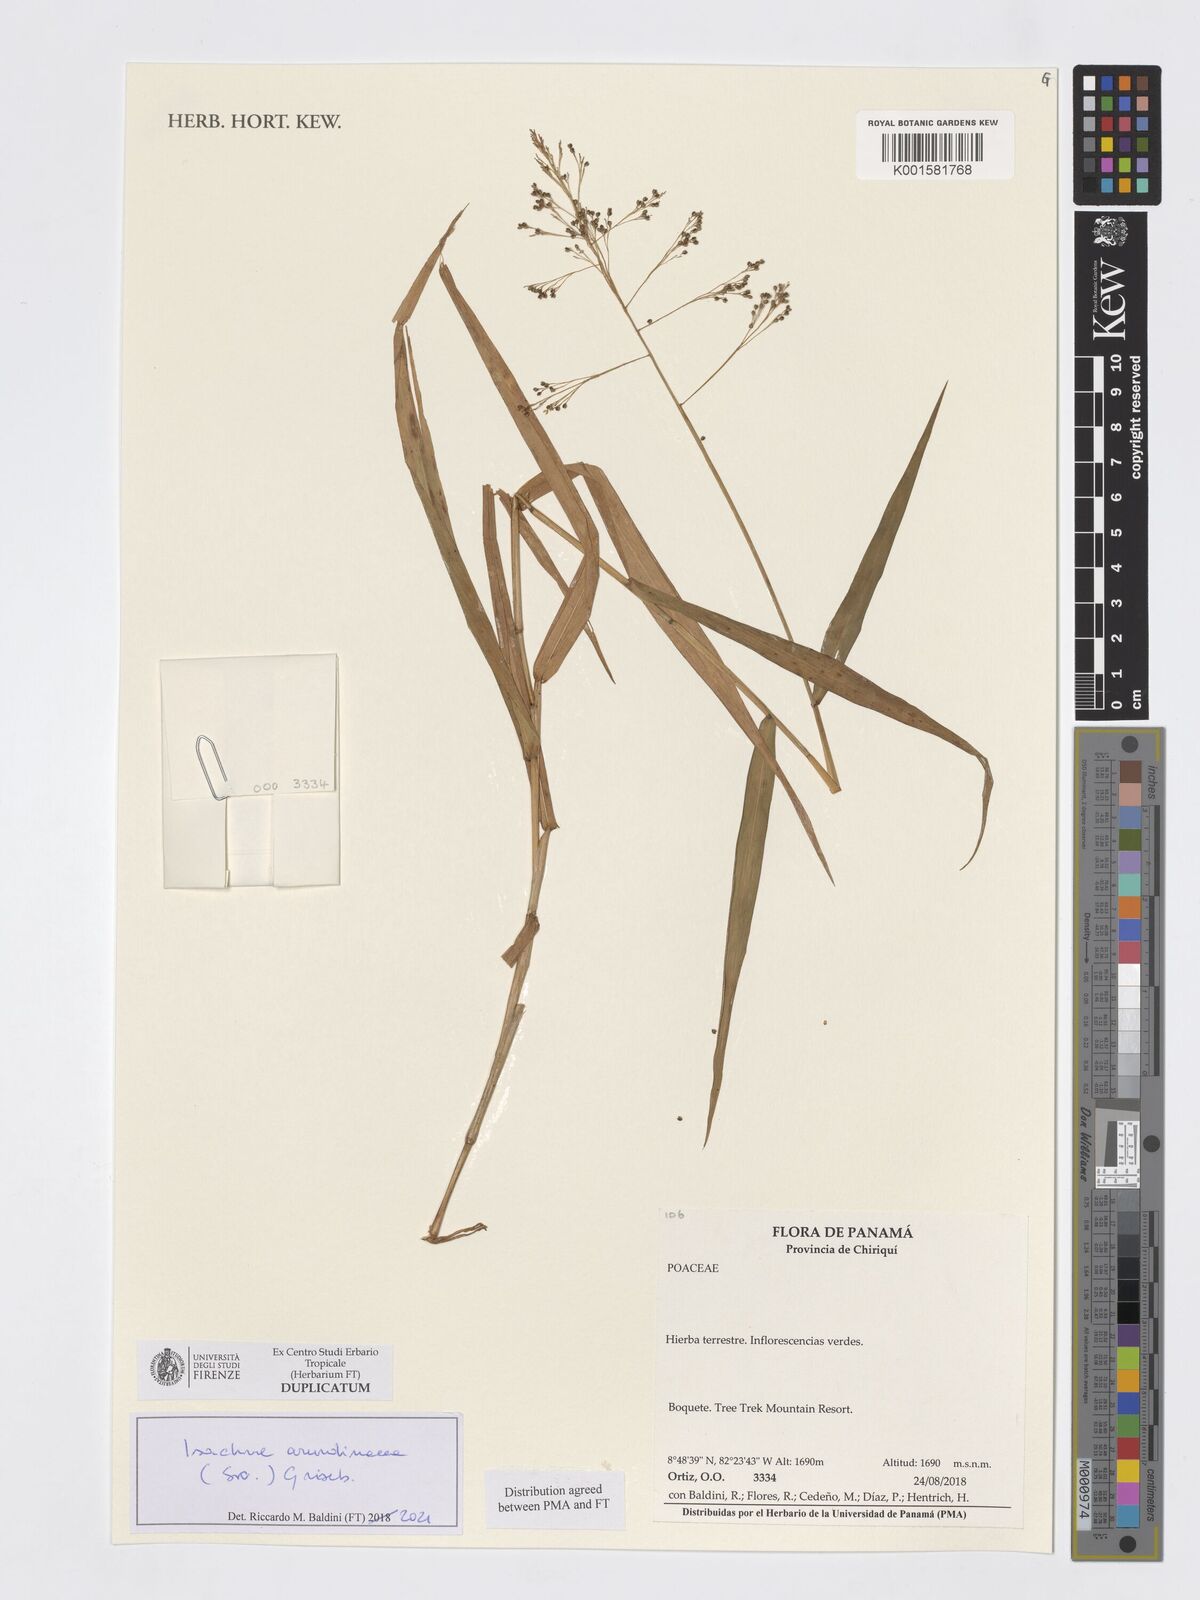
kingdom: Plantae
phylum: Tracheophyta
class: Liliopsida
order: Poales
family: Poaceae
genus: Isachne
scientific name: Isachne arundinacea
